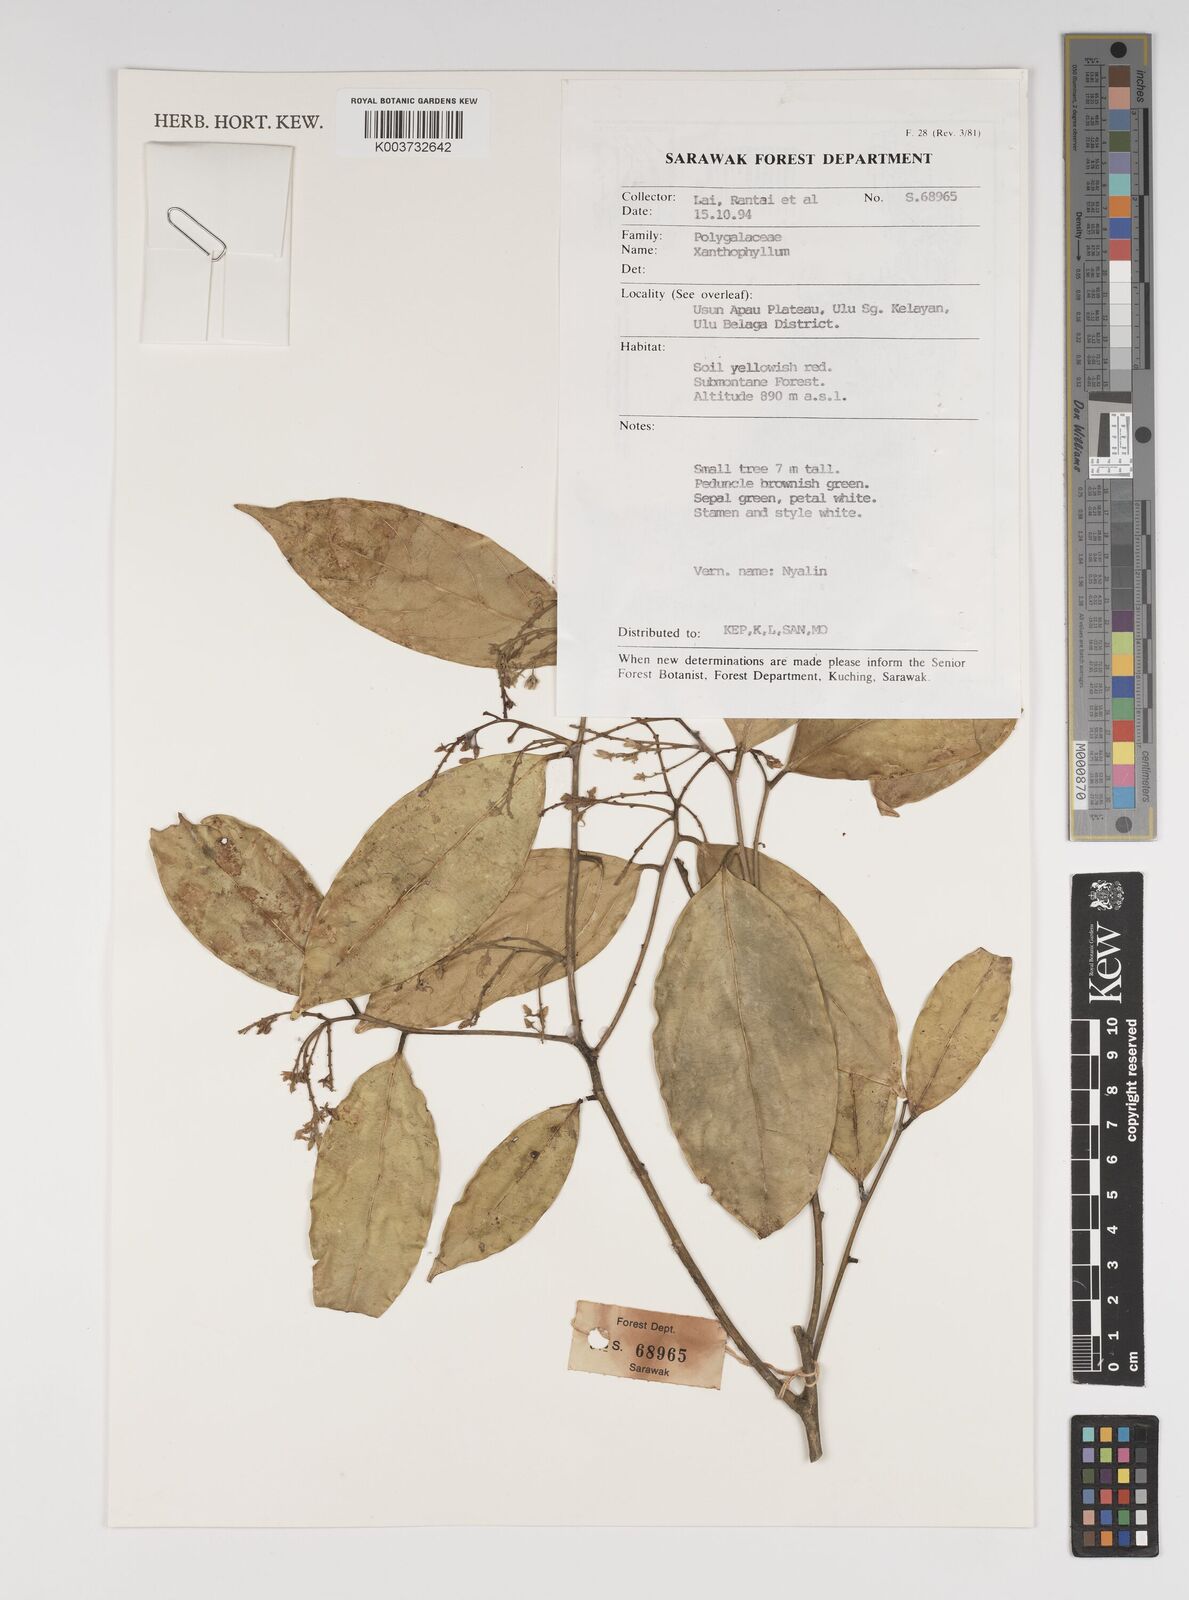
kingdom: Plantae
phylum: Tracheophyta
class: Magnoliopsida
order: Fabales
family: Polygalaceae
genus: Xanthophyllum
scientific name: Xanthophyllum
